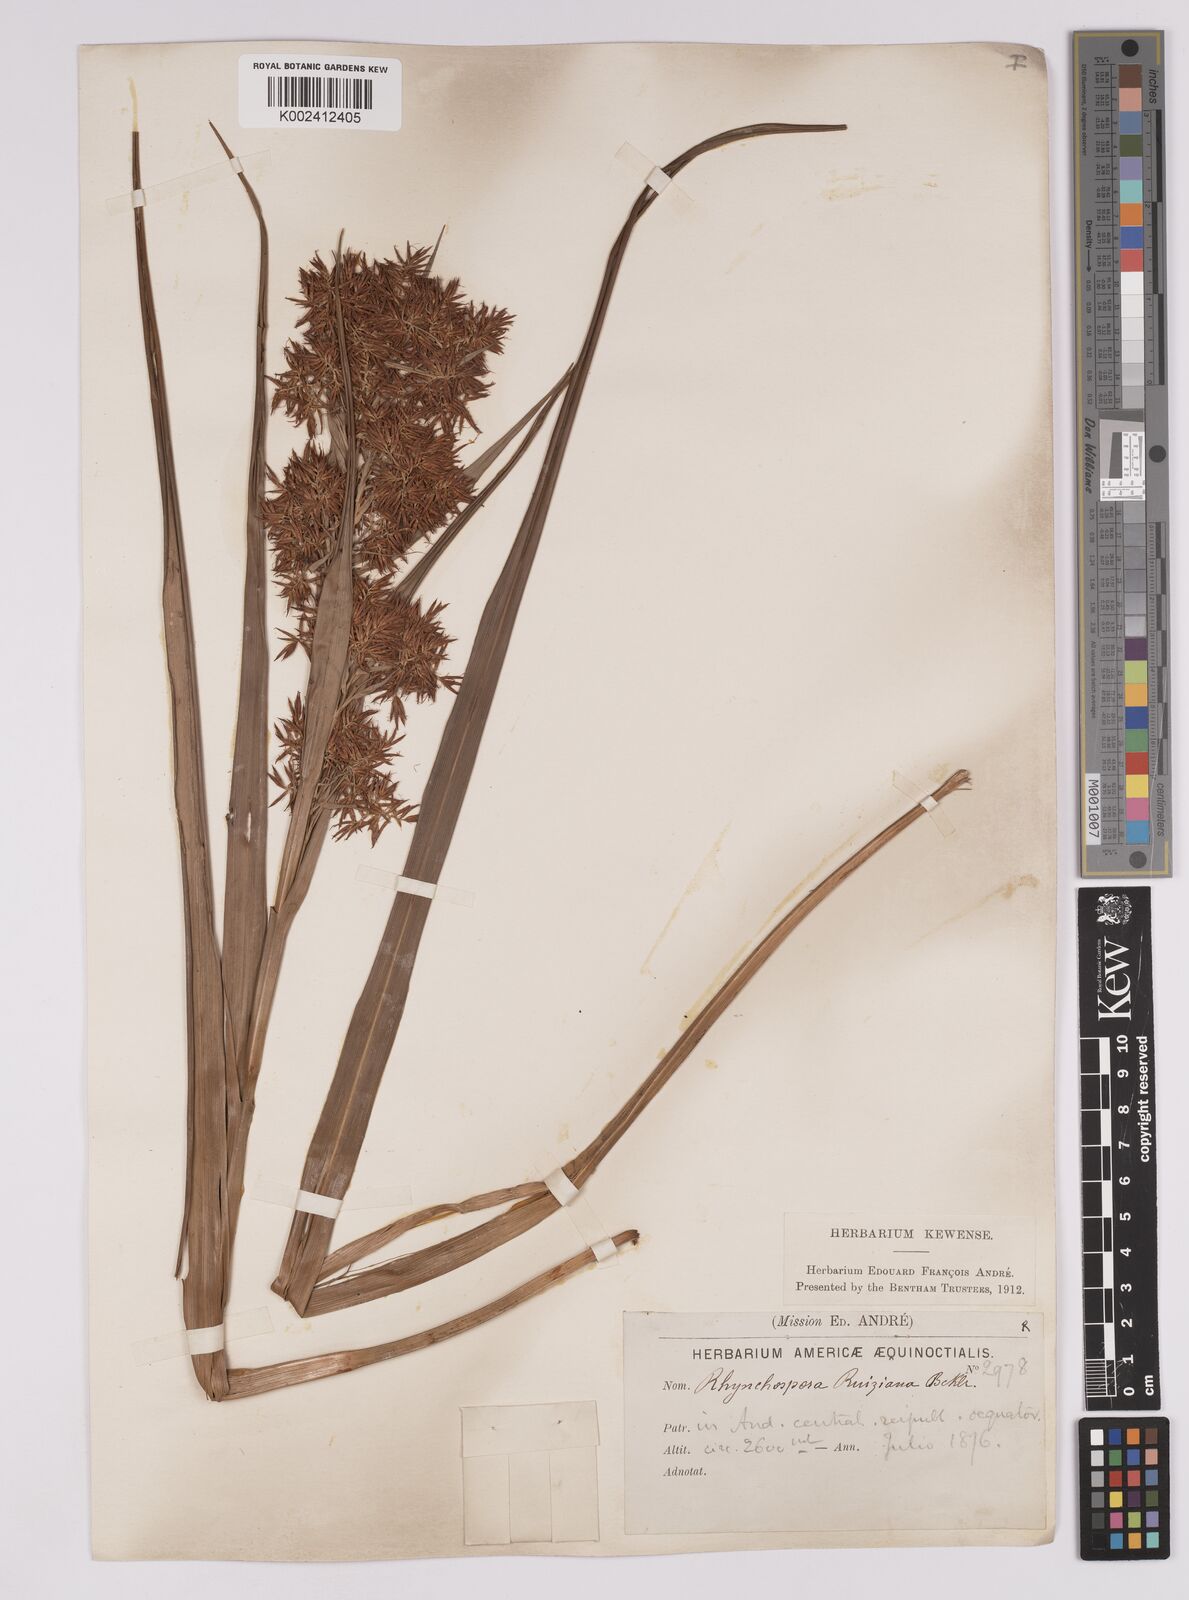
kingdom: Plantae
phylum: Tracheophyta
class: Liliopsida
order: Poales
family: Cyperaceae
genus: Rhynchospora
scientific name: Rhynchospora ruiziana
